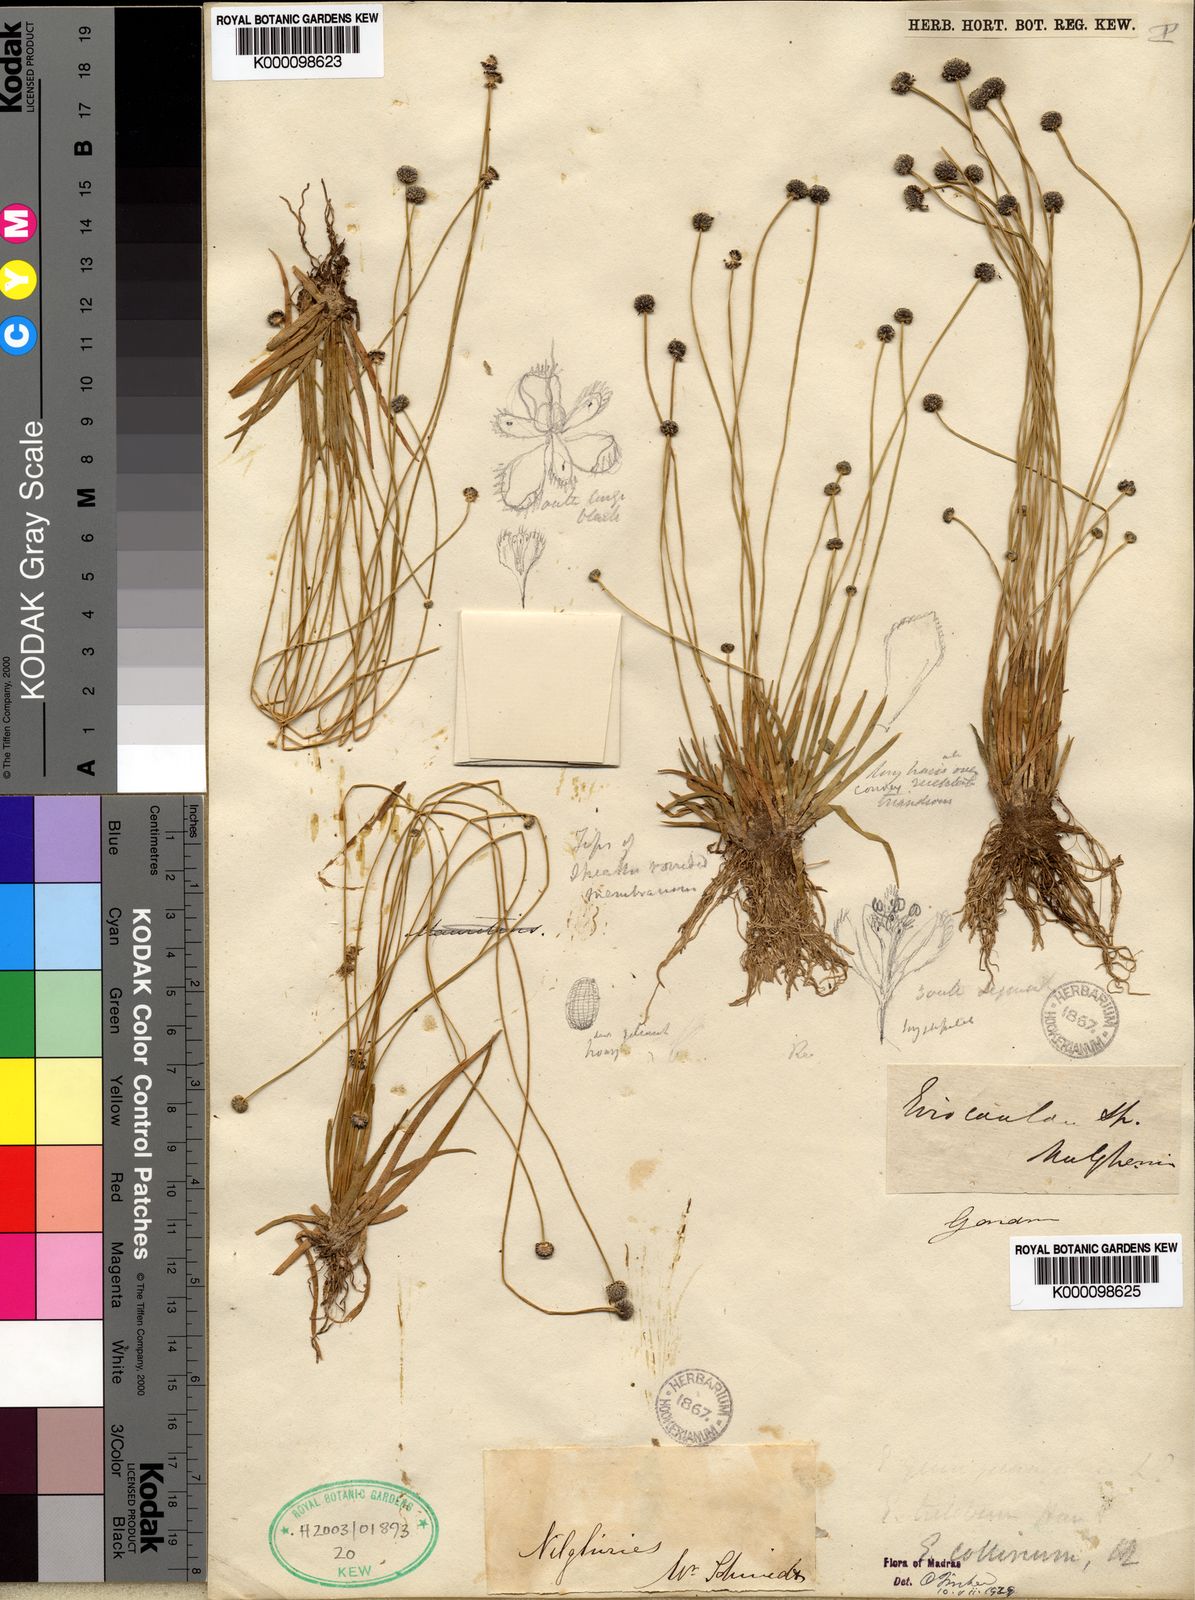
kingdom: Plantae
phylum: Tracheophyta
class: Liliopsida
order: Poales
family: Eriocaulaceae
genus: Eriocaulon
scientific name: Eriocaulon odoratum
